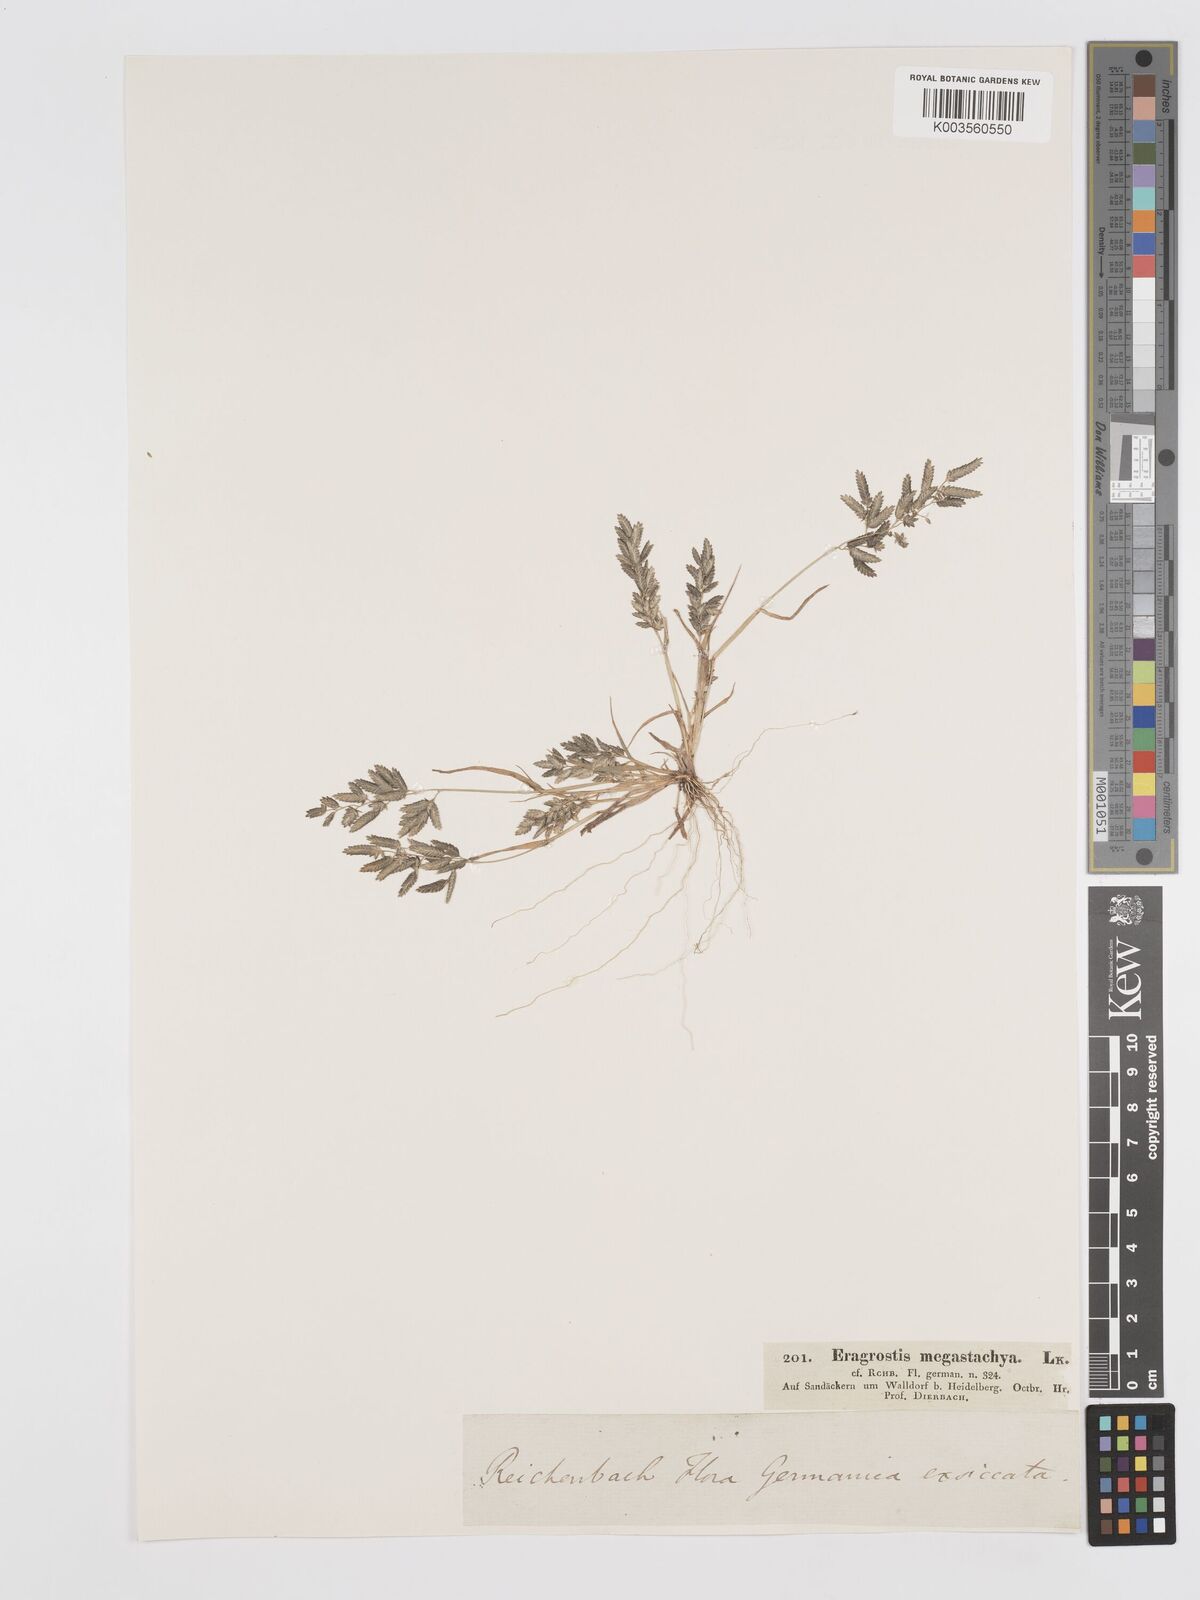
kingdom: Plantae
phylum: Tracheophyta
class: Liliopsida
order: Poales
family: Poaceae
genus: Eragrostis
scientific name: Eragrostis cilianensis
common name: Stinkgrass
